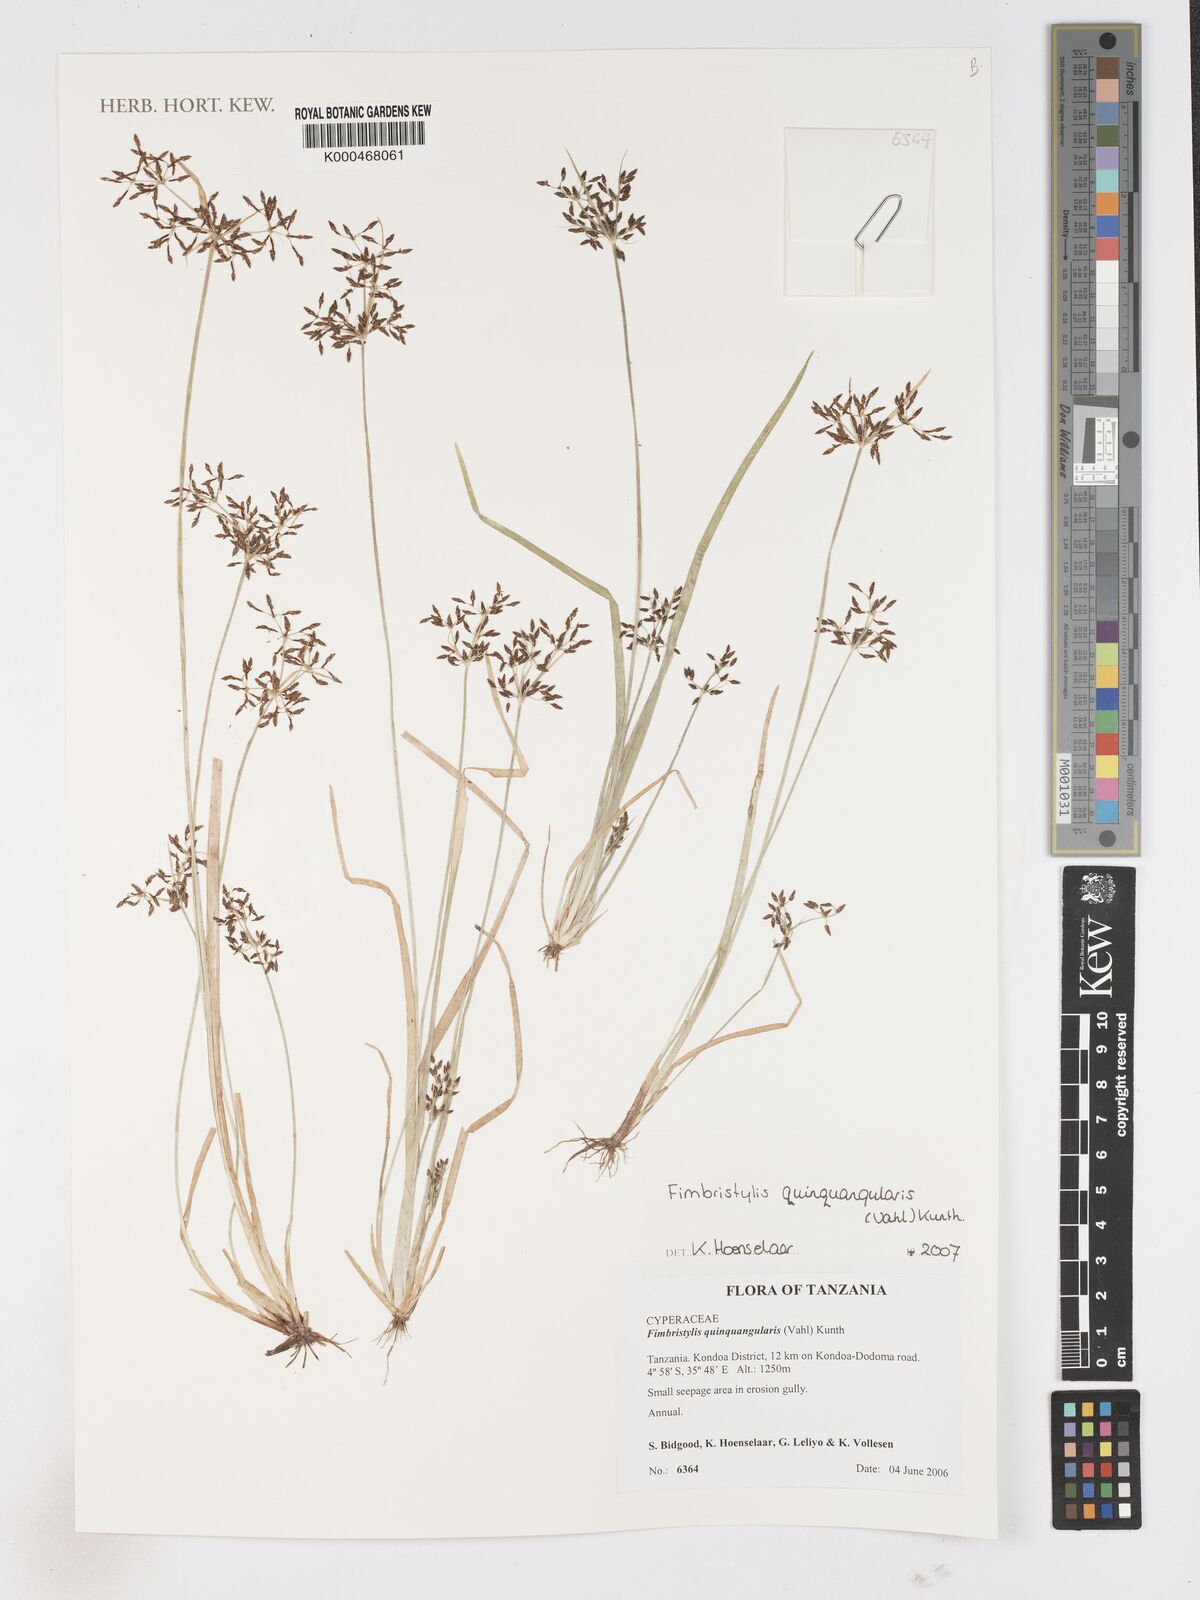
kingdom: Plantae
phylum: Tracheophyta
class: Liliopsida
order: Poales
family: Cyperaceae
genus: Fimbristylis
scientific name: Fimbristylis quinquangularis
